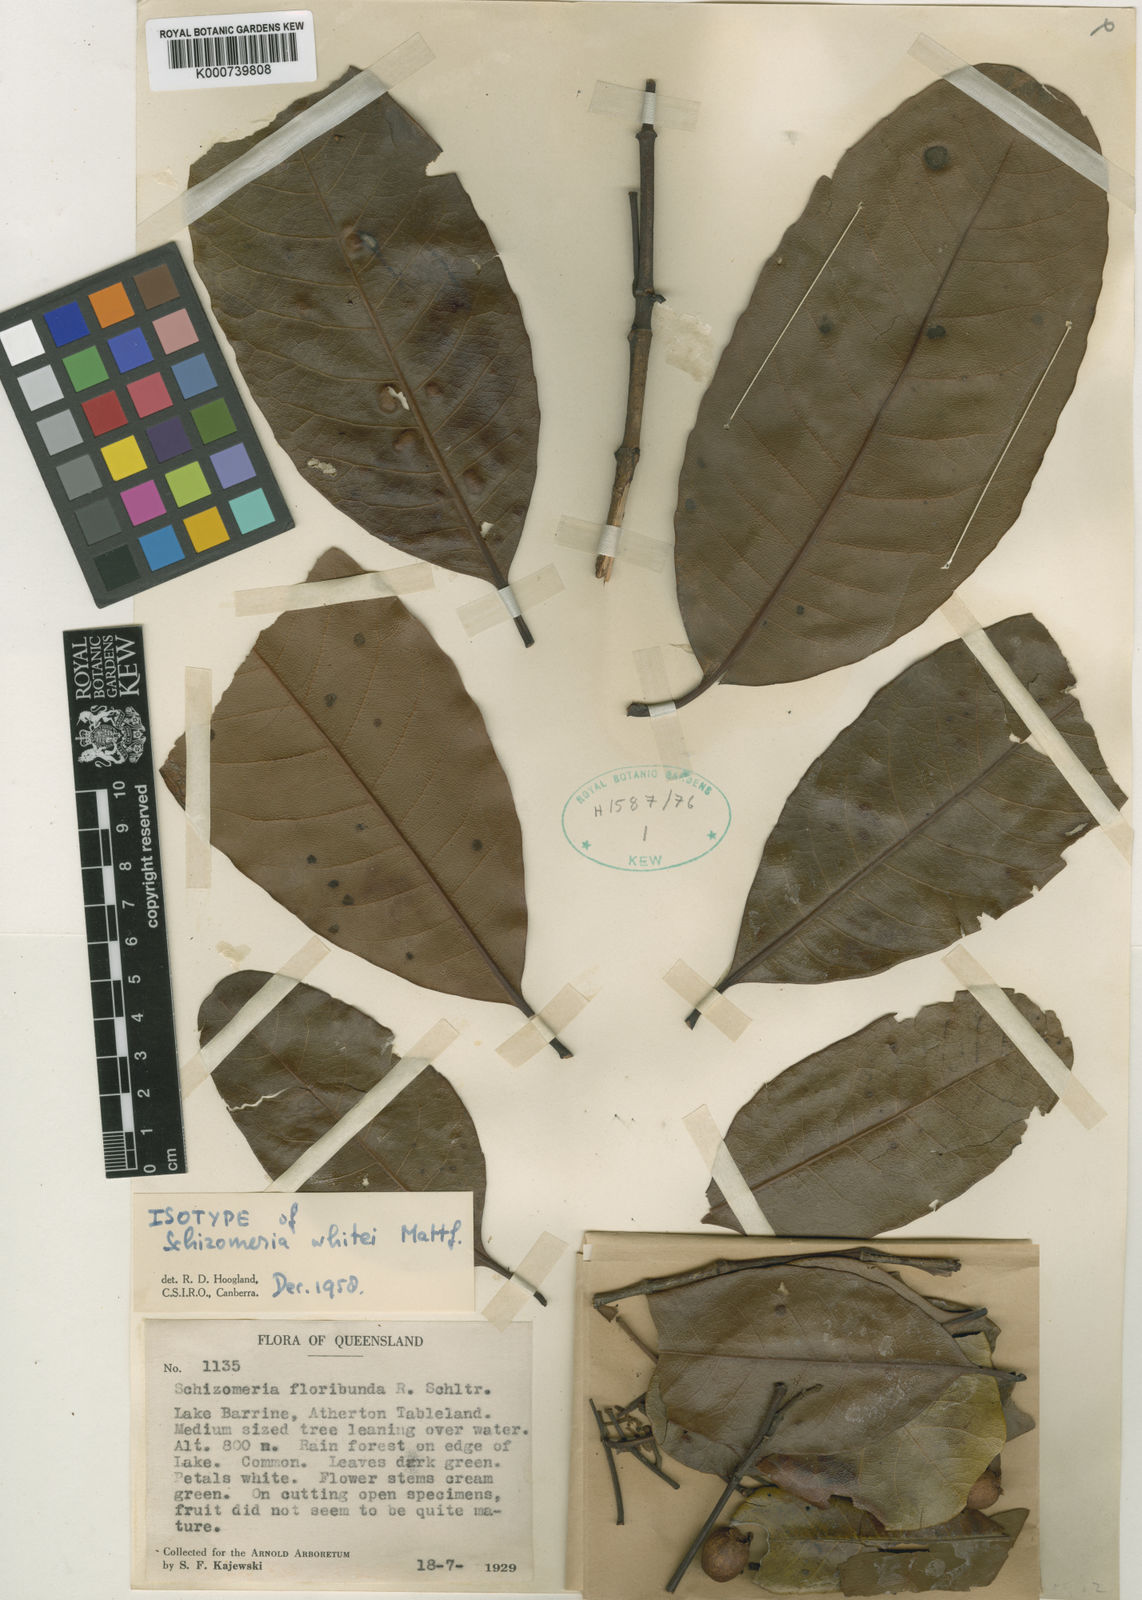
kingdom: Plantae
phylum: Tracheophyta
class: Magnoliopsida
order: Oxalidales
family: Cunoniaceae
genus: Schizomeria
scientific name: Schizomeria whitei
